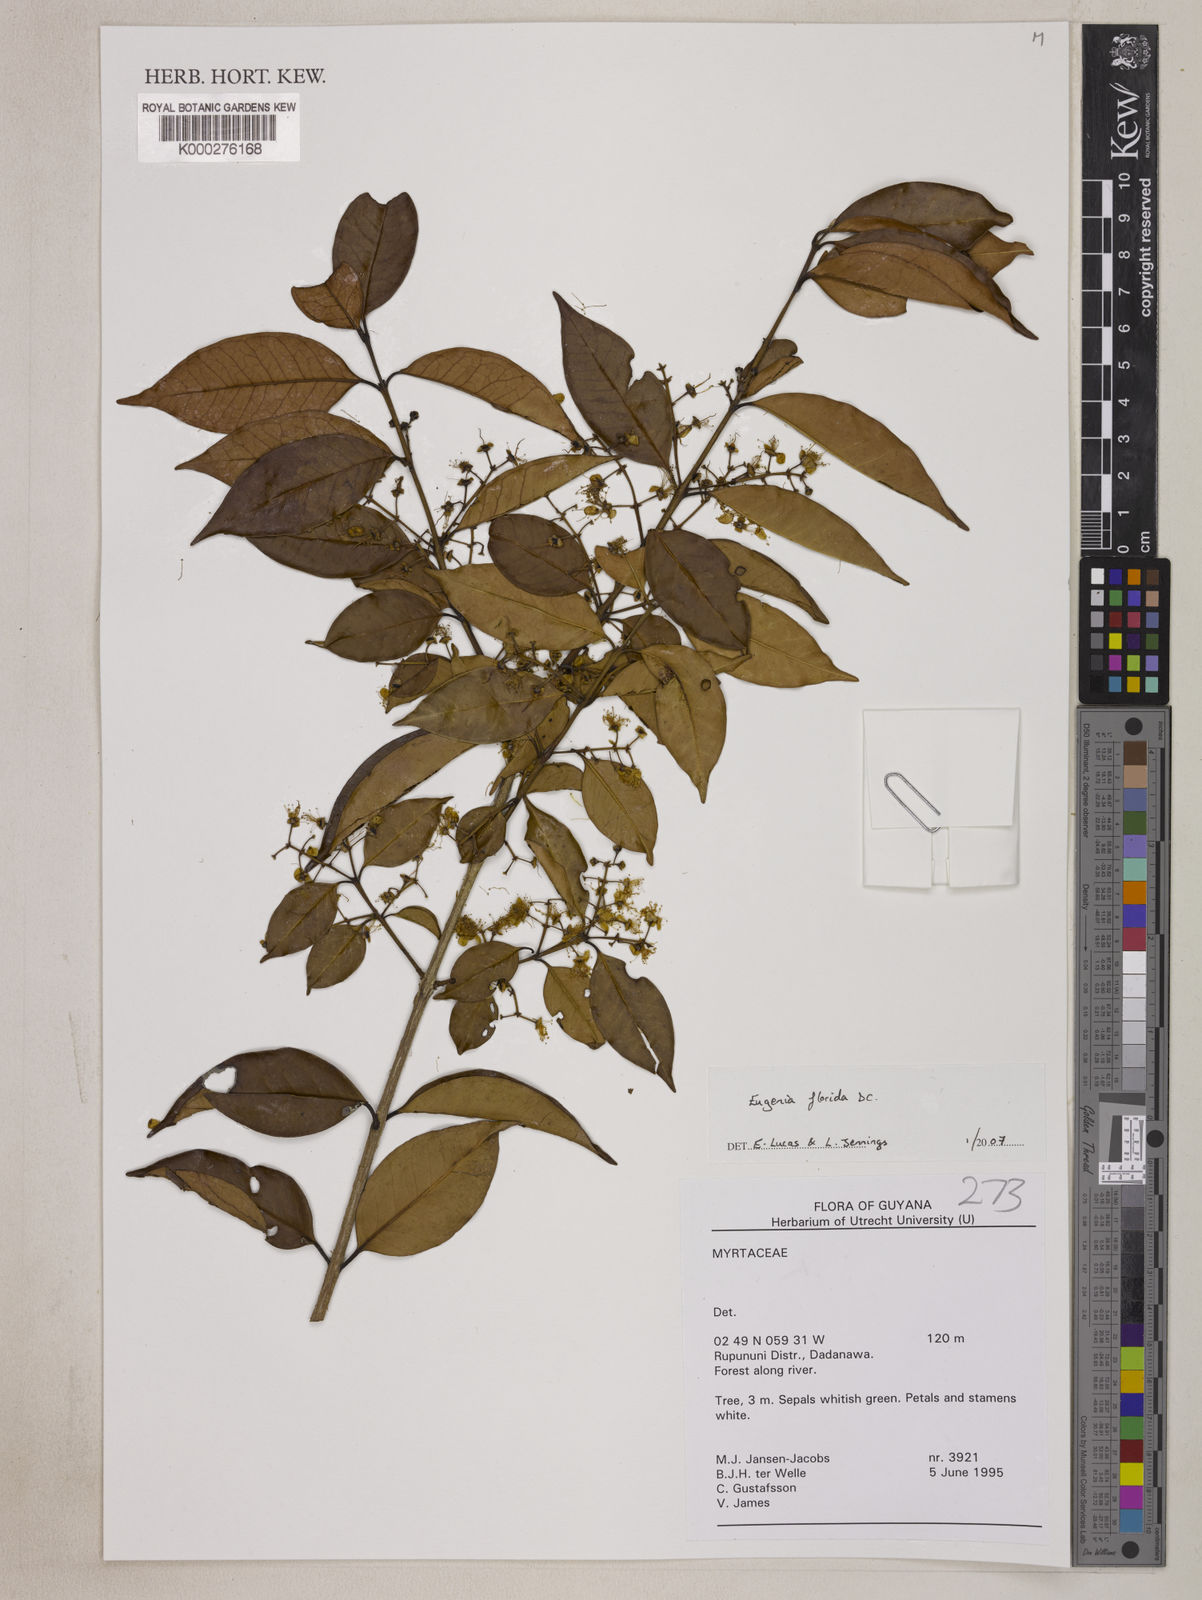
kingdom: Plantae
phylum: Tracheophyta
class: Magnoliopsida
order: Myrtales
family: Myrtaceae
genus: Eugenia
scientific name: Eugenia florida
